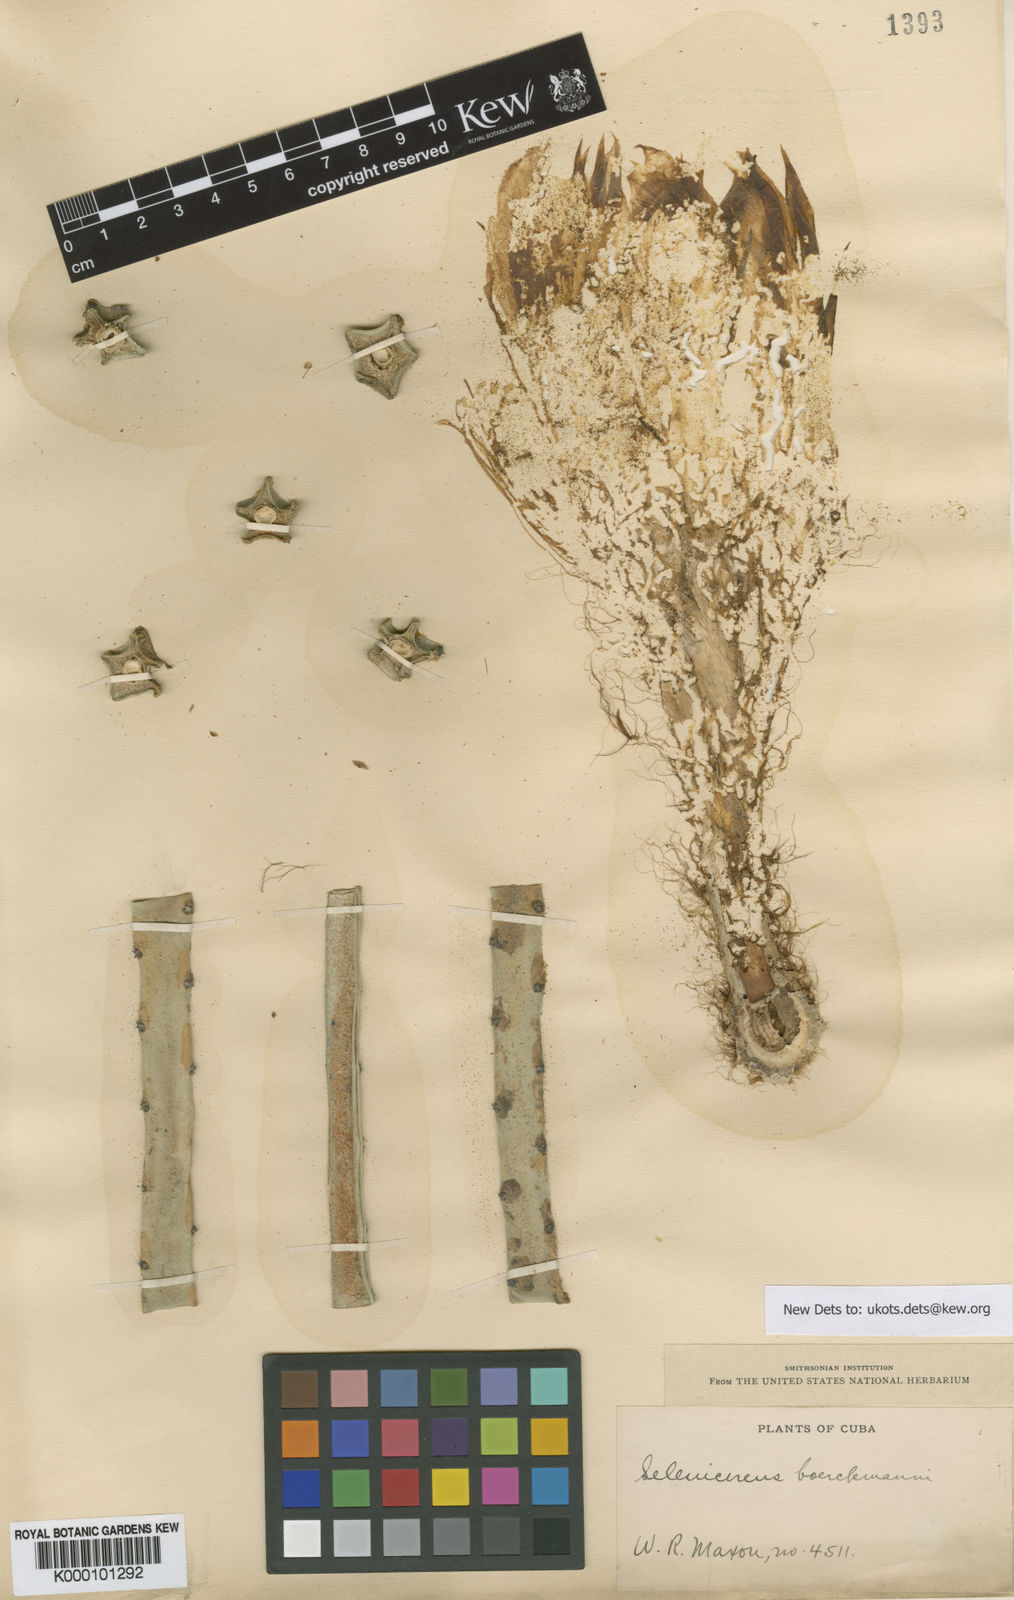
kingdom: Plantae
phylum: Tracheophyta
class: Magnoliopsida
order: Caryophyllales
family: Cactaceae
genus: Selenicereus
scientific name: Selenicereus pteranthus
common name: Princess of the night
